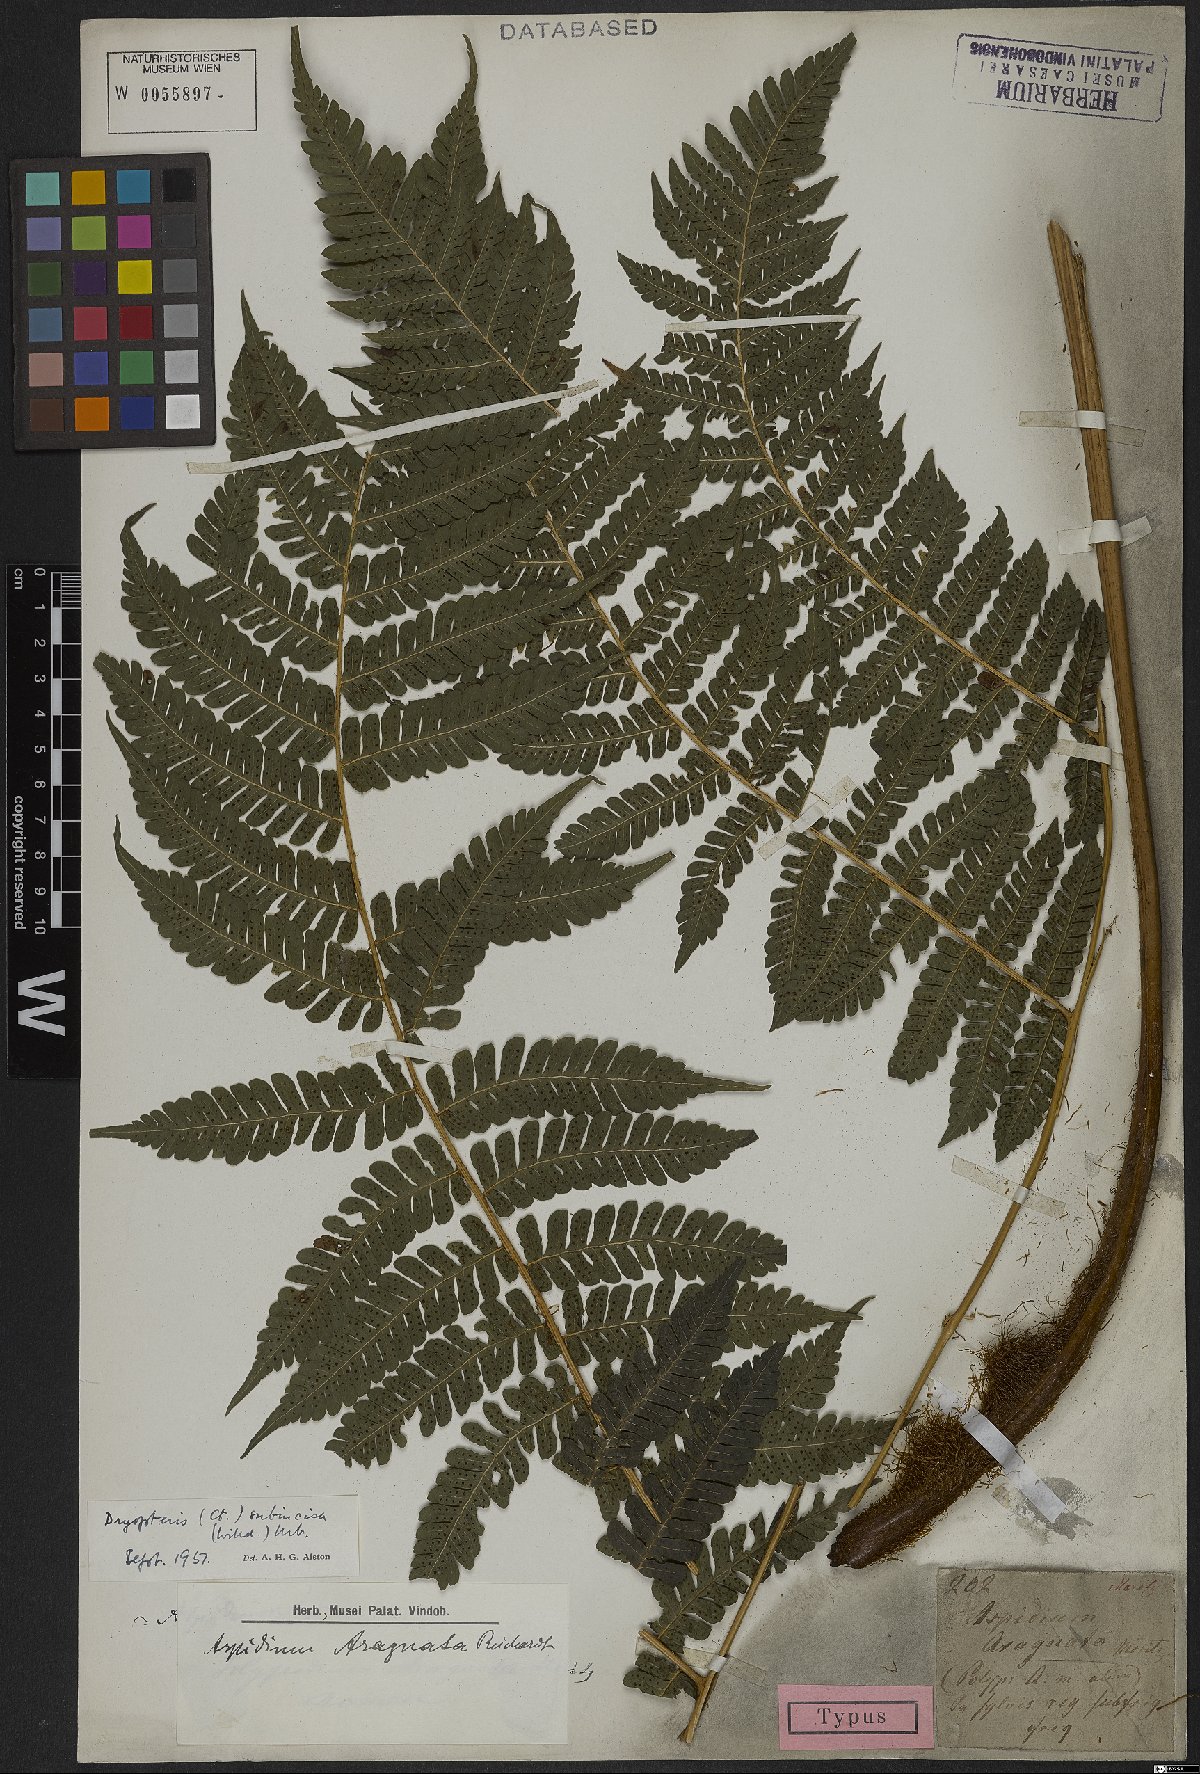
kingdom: Plantae
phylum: Tracheophyta
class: Polypodiopsida
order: Polypodiales
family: Dryopteridaceae
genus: Megalastrum
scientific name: Megalastrum subincisum
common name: Jagleaf junglefern
